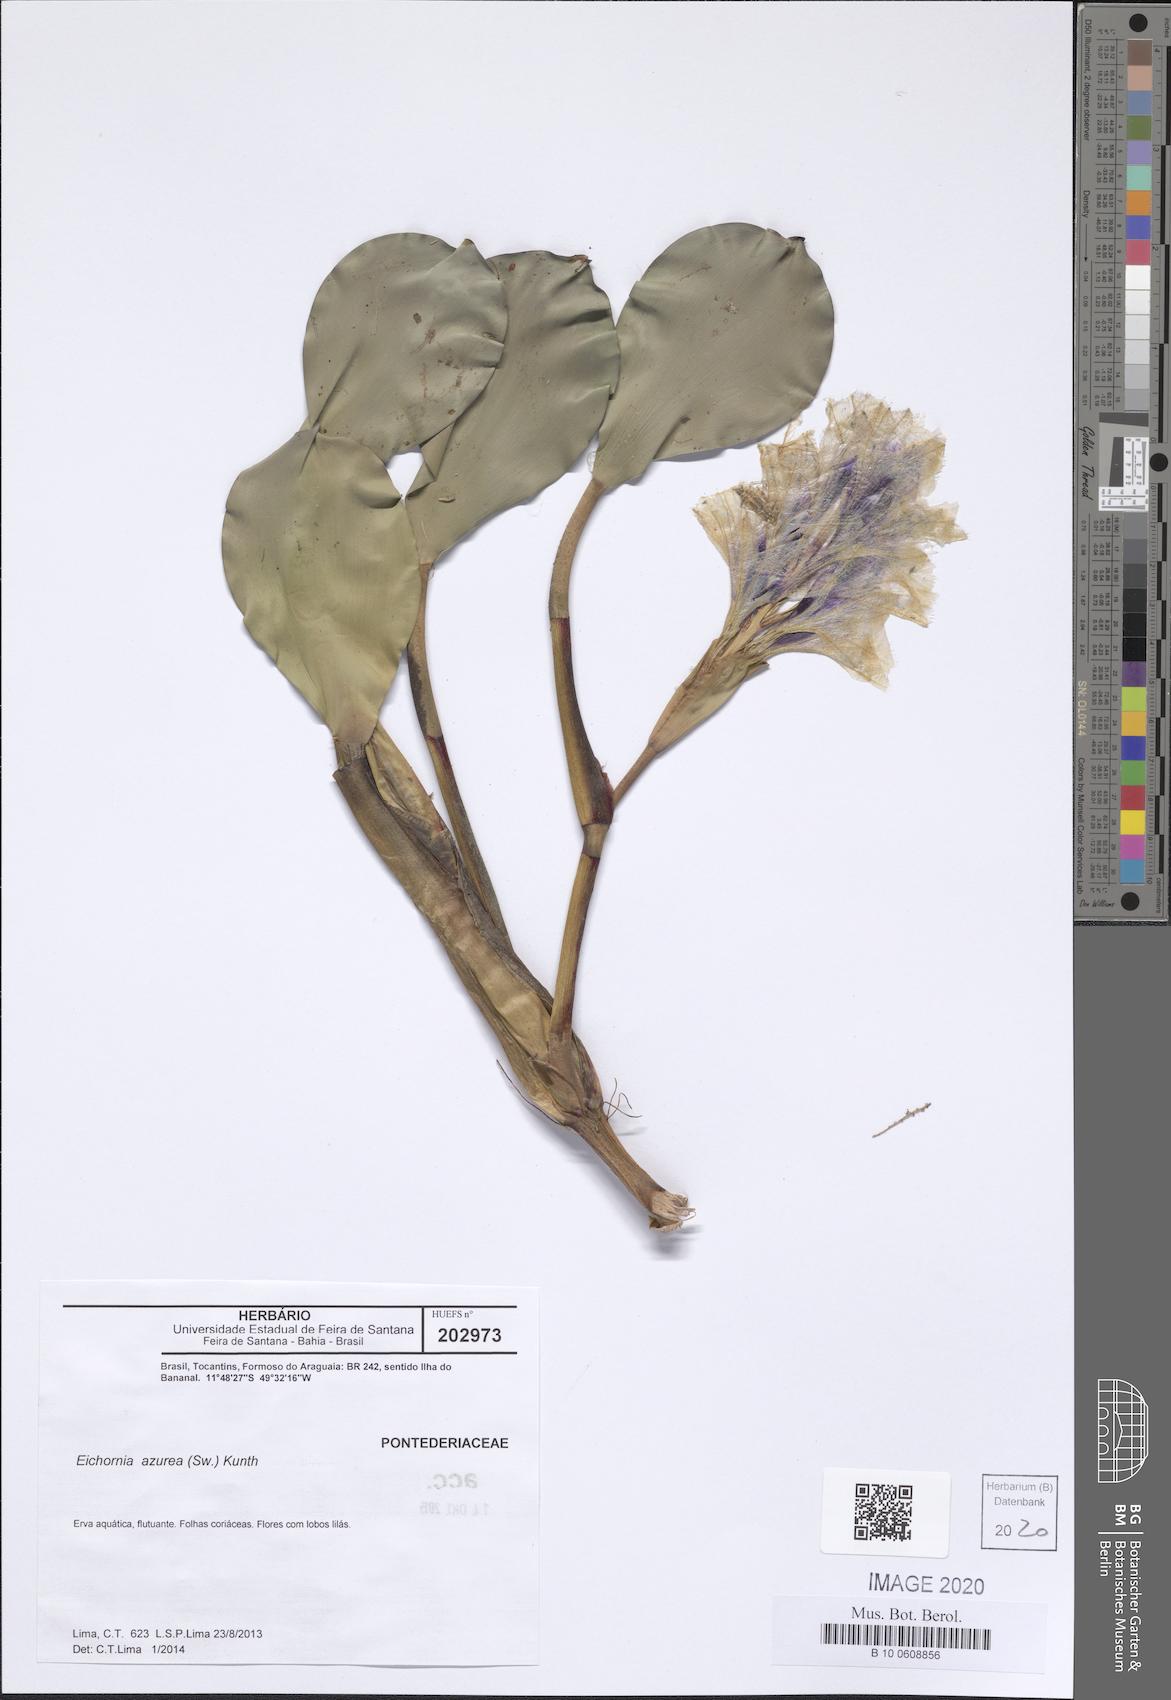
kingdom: Plantae
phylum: Tracheophyta
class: Liliopsida
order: Commelinales
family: Pontederiaceae
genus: Pontederia
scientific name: Pontederia azurea
